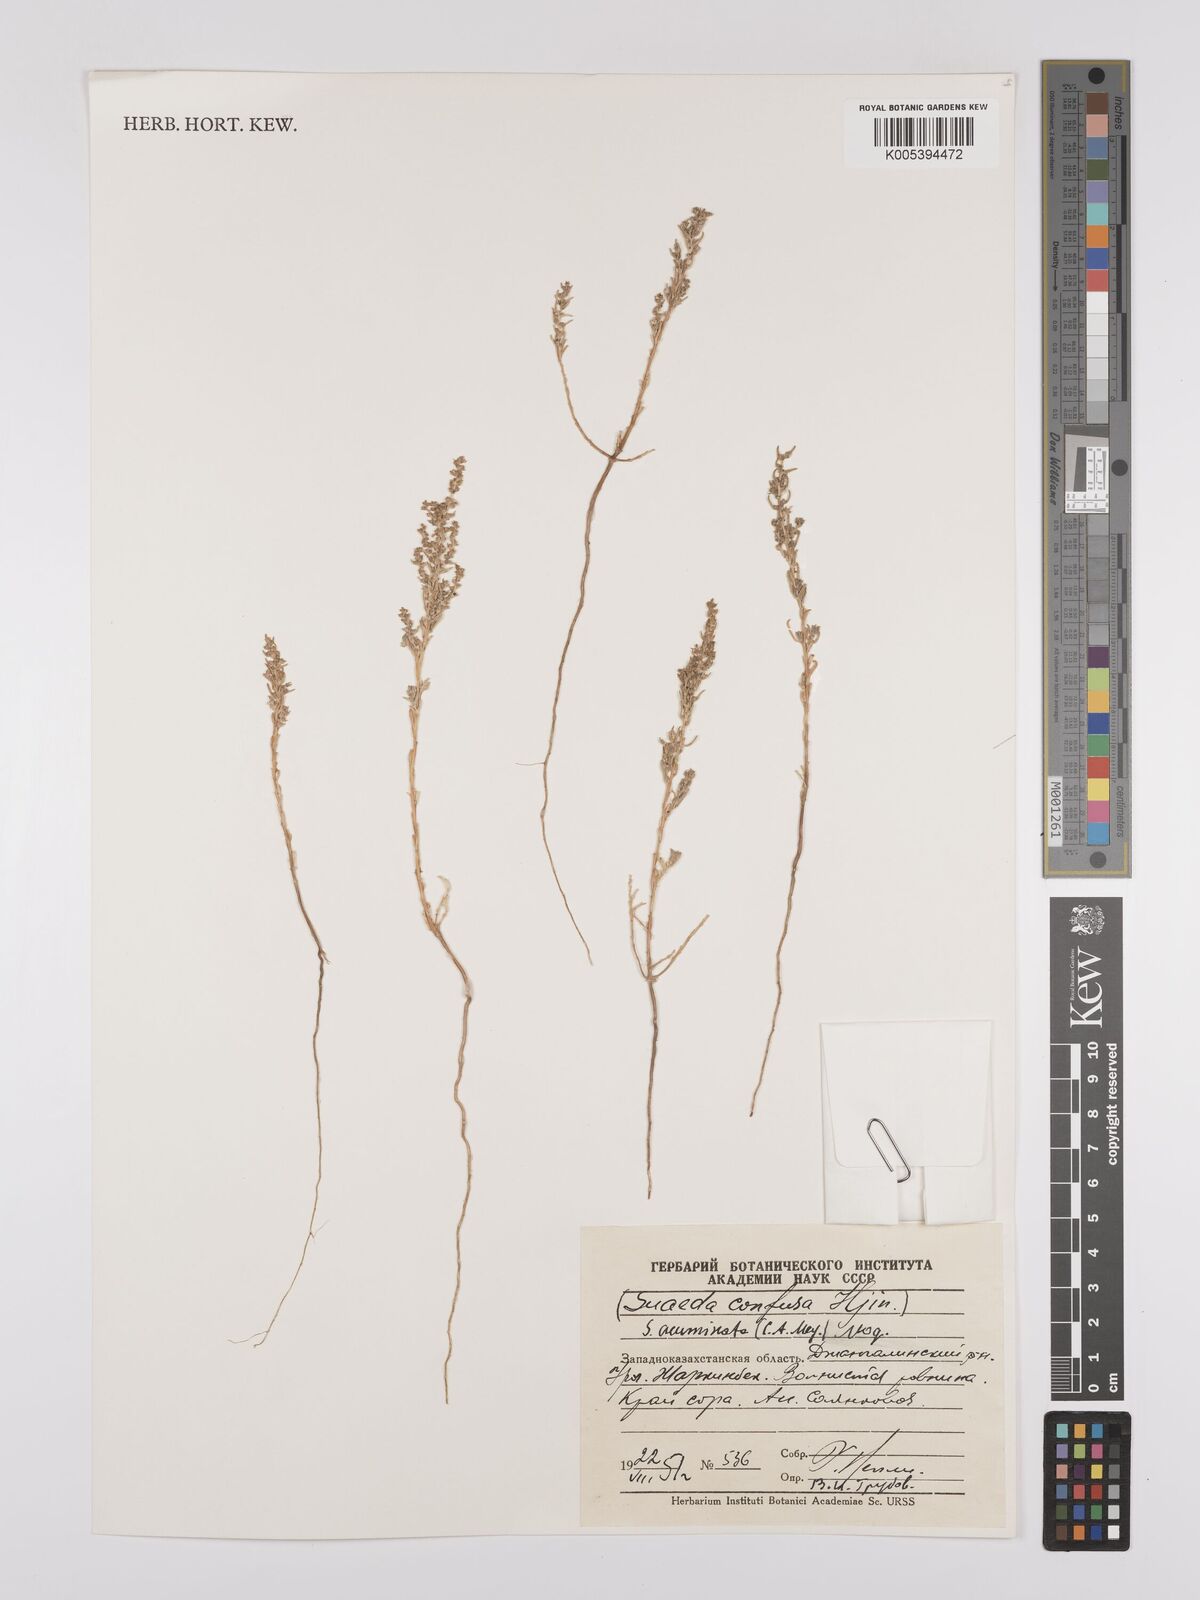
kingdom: Plantae
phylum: Tracheophyta
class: Magnoliopsida
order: Caryophyllales
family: Amaranthaceae
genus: Suaeda
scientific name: Suaeda acuminata
